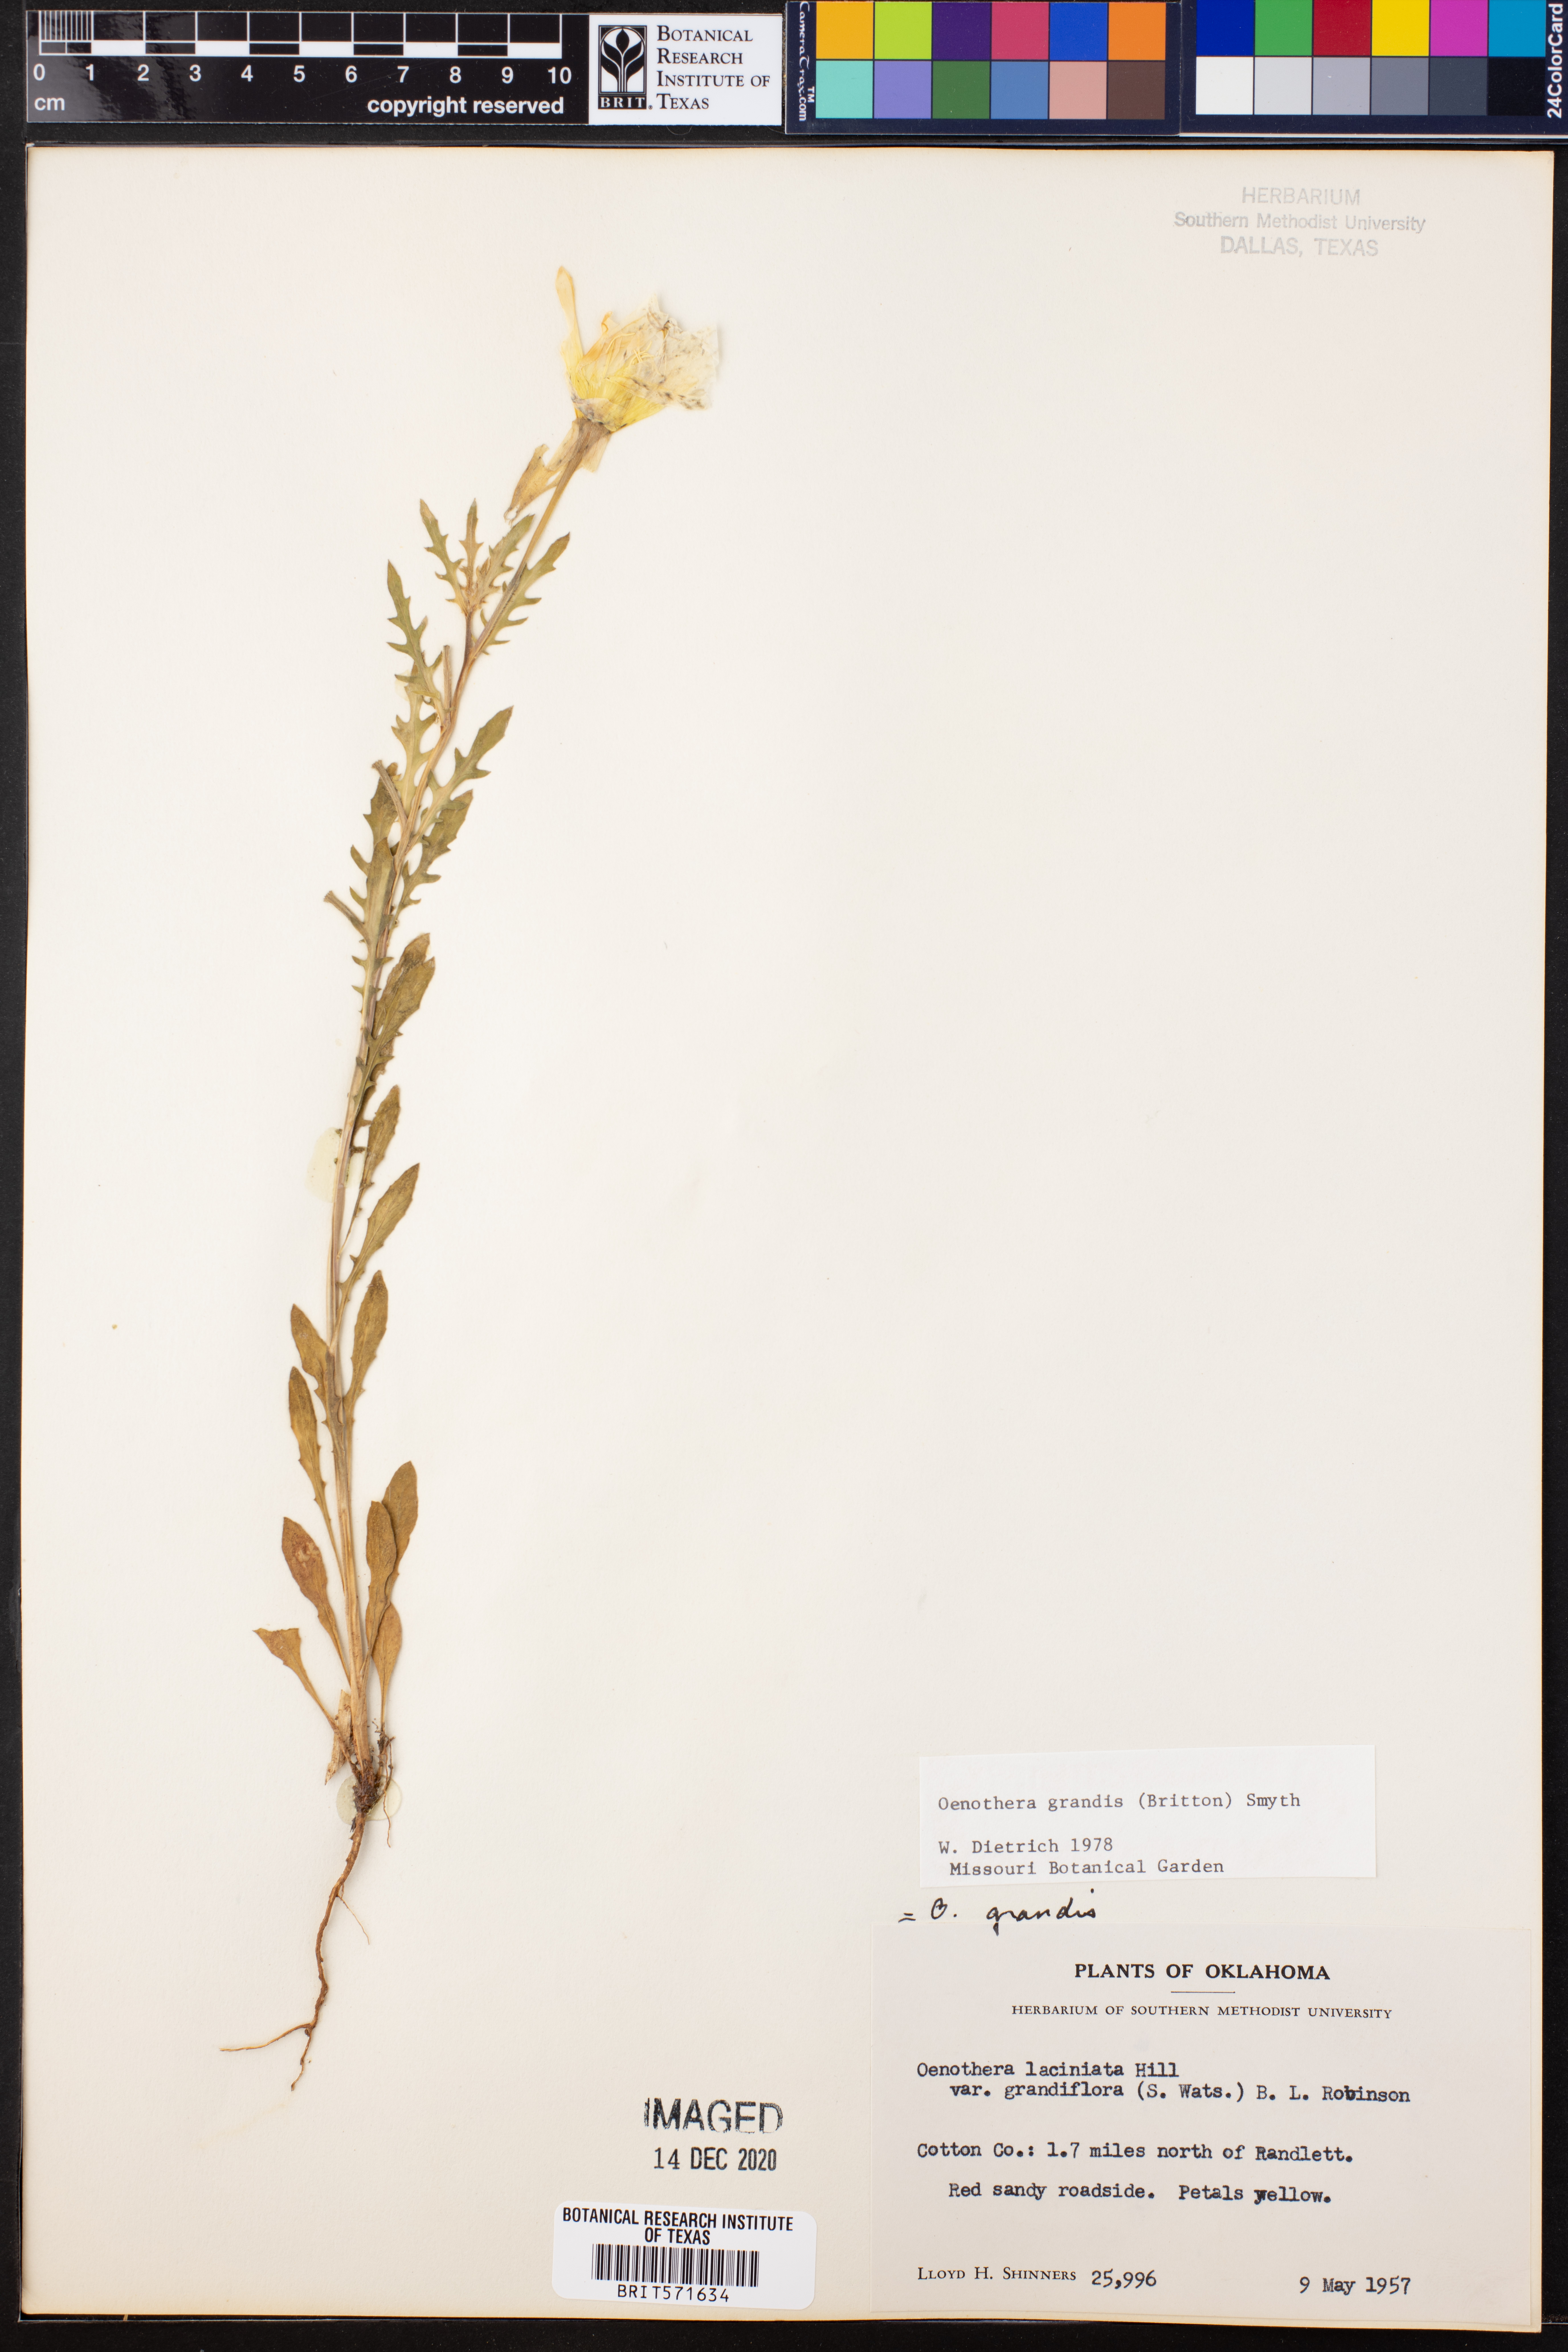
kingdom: Plantae
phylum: Tracheophyta
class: Magnoliopsida
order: Myrtales
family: Onagraceae
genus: Oenothera
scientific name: Oenothera grandis
